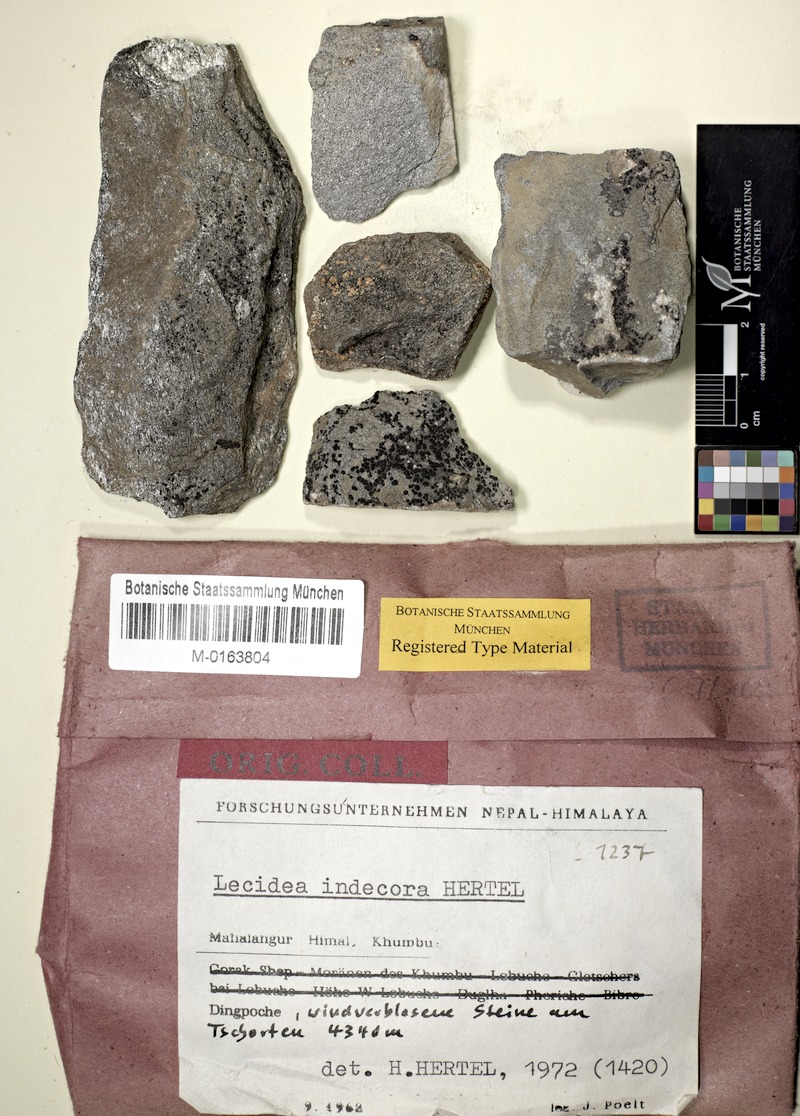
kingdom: Fungi
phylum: Ascomycota
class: Lecanoromycetes
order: Lecideales
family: Lecideaceae
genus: Lecidea
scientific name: Lecidea fuscoatra
